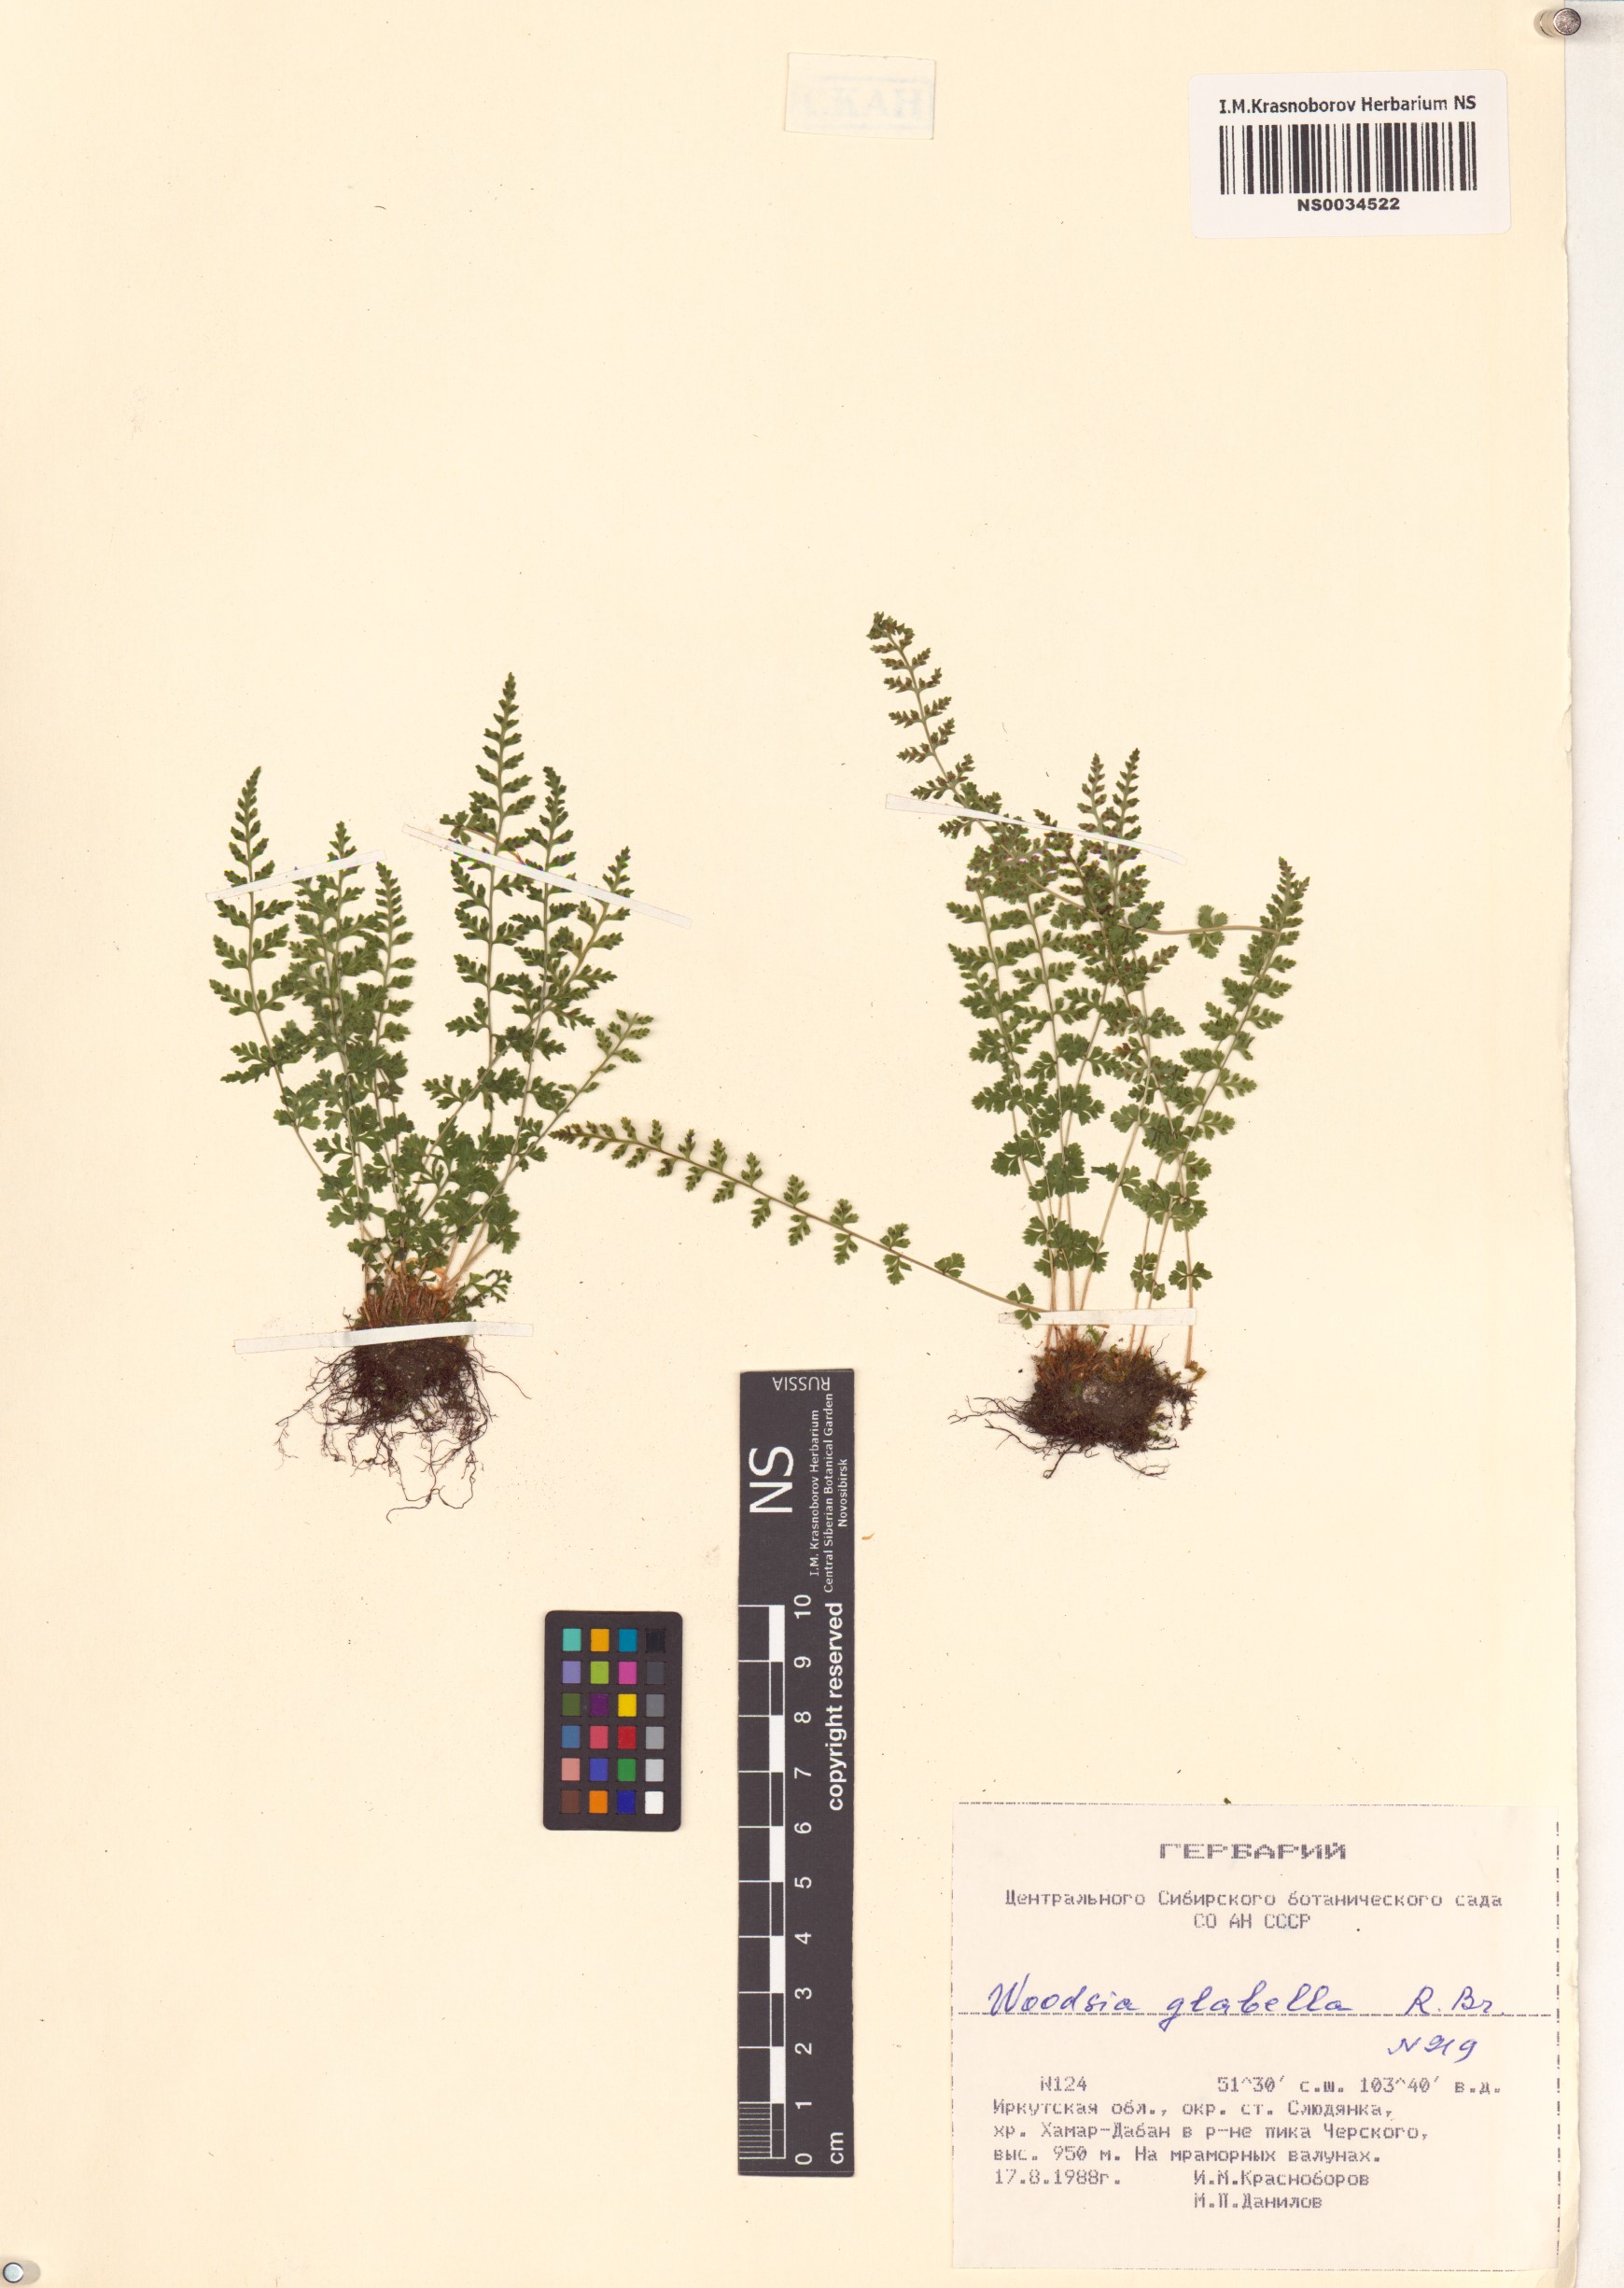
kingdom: Plantae
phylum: Tracheophyta
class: Polypodiopsida
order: Polypodiales
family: Woodsiaceae
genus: Woodsia
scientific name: Woodsia glabella
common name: Smooth woodsia
